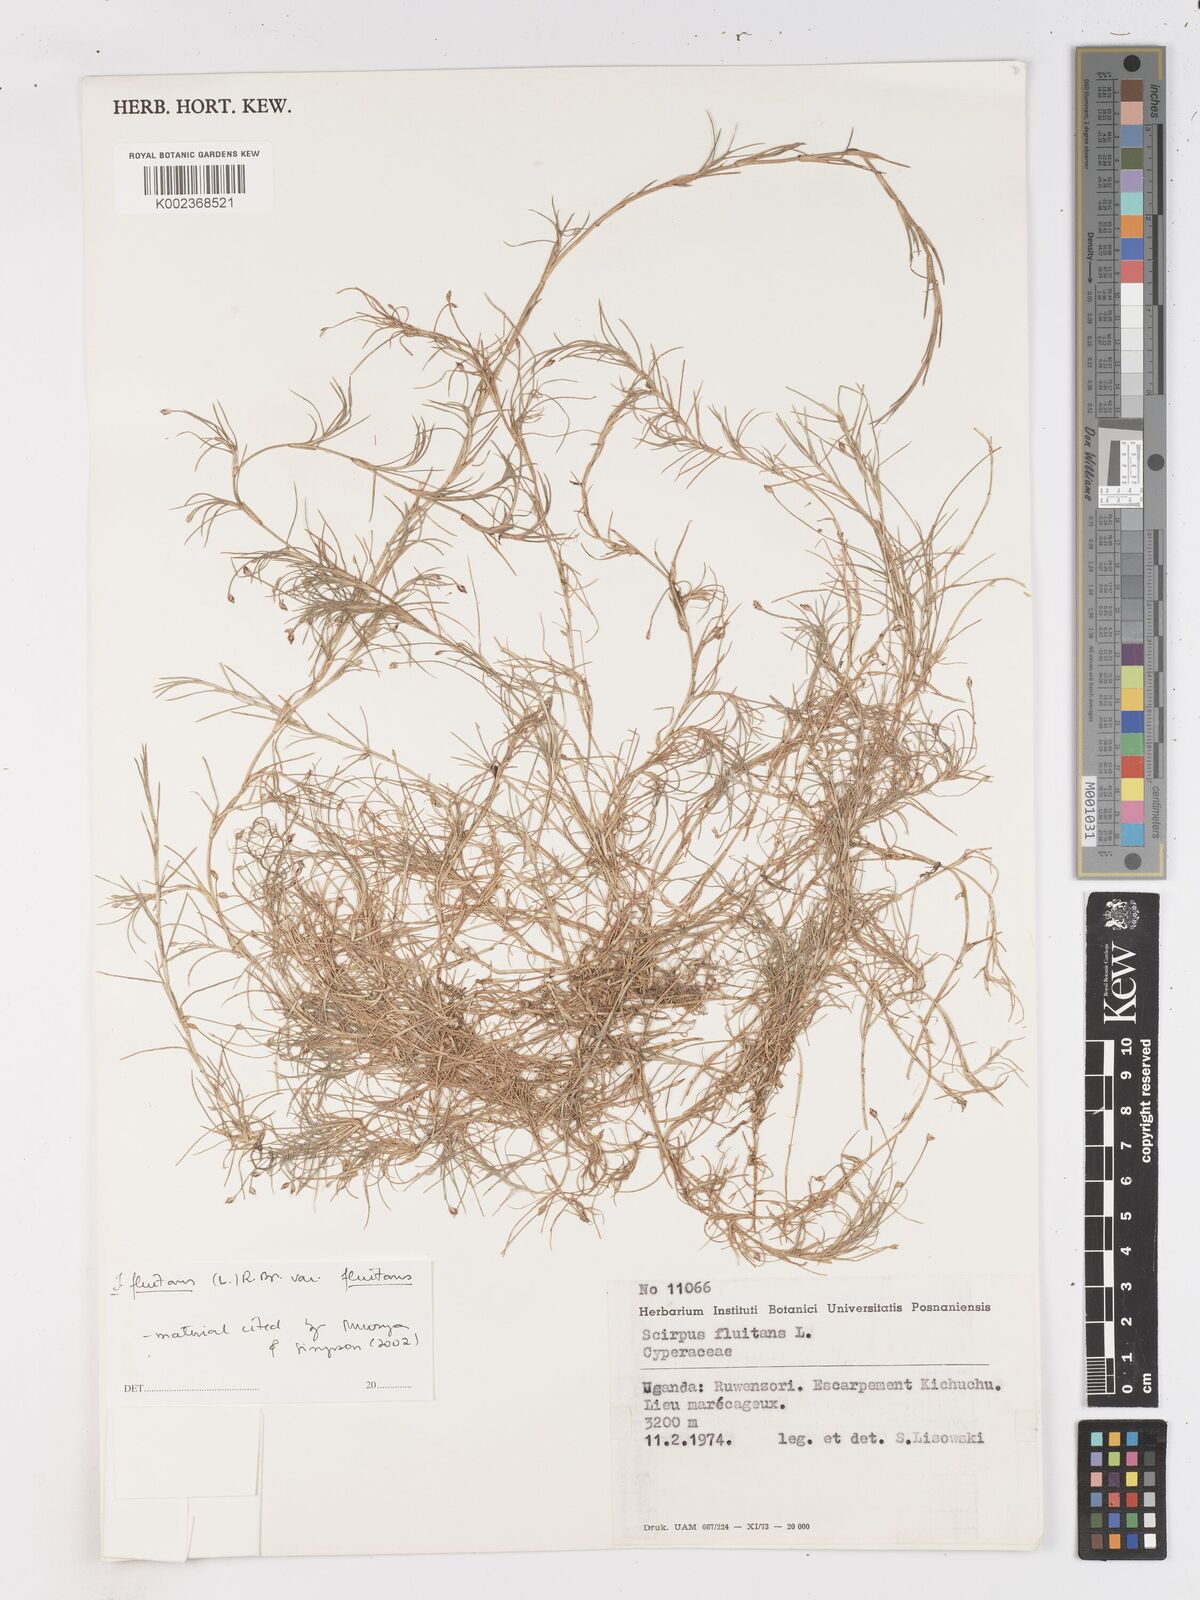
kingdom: Plantae
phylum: Tracheophyta
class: Liliopsida
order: Poales
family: Cyperaceae
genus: Isolepis
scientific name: Isolepis fluitans
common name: Floating club-rush
